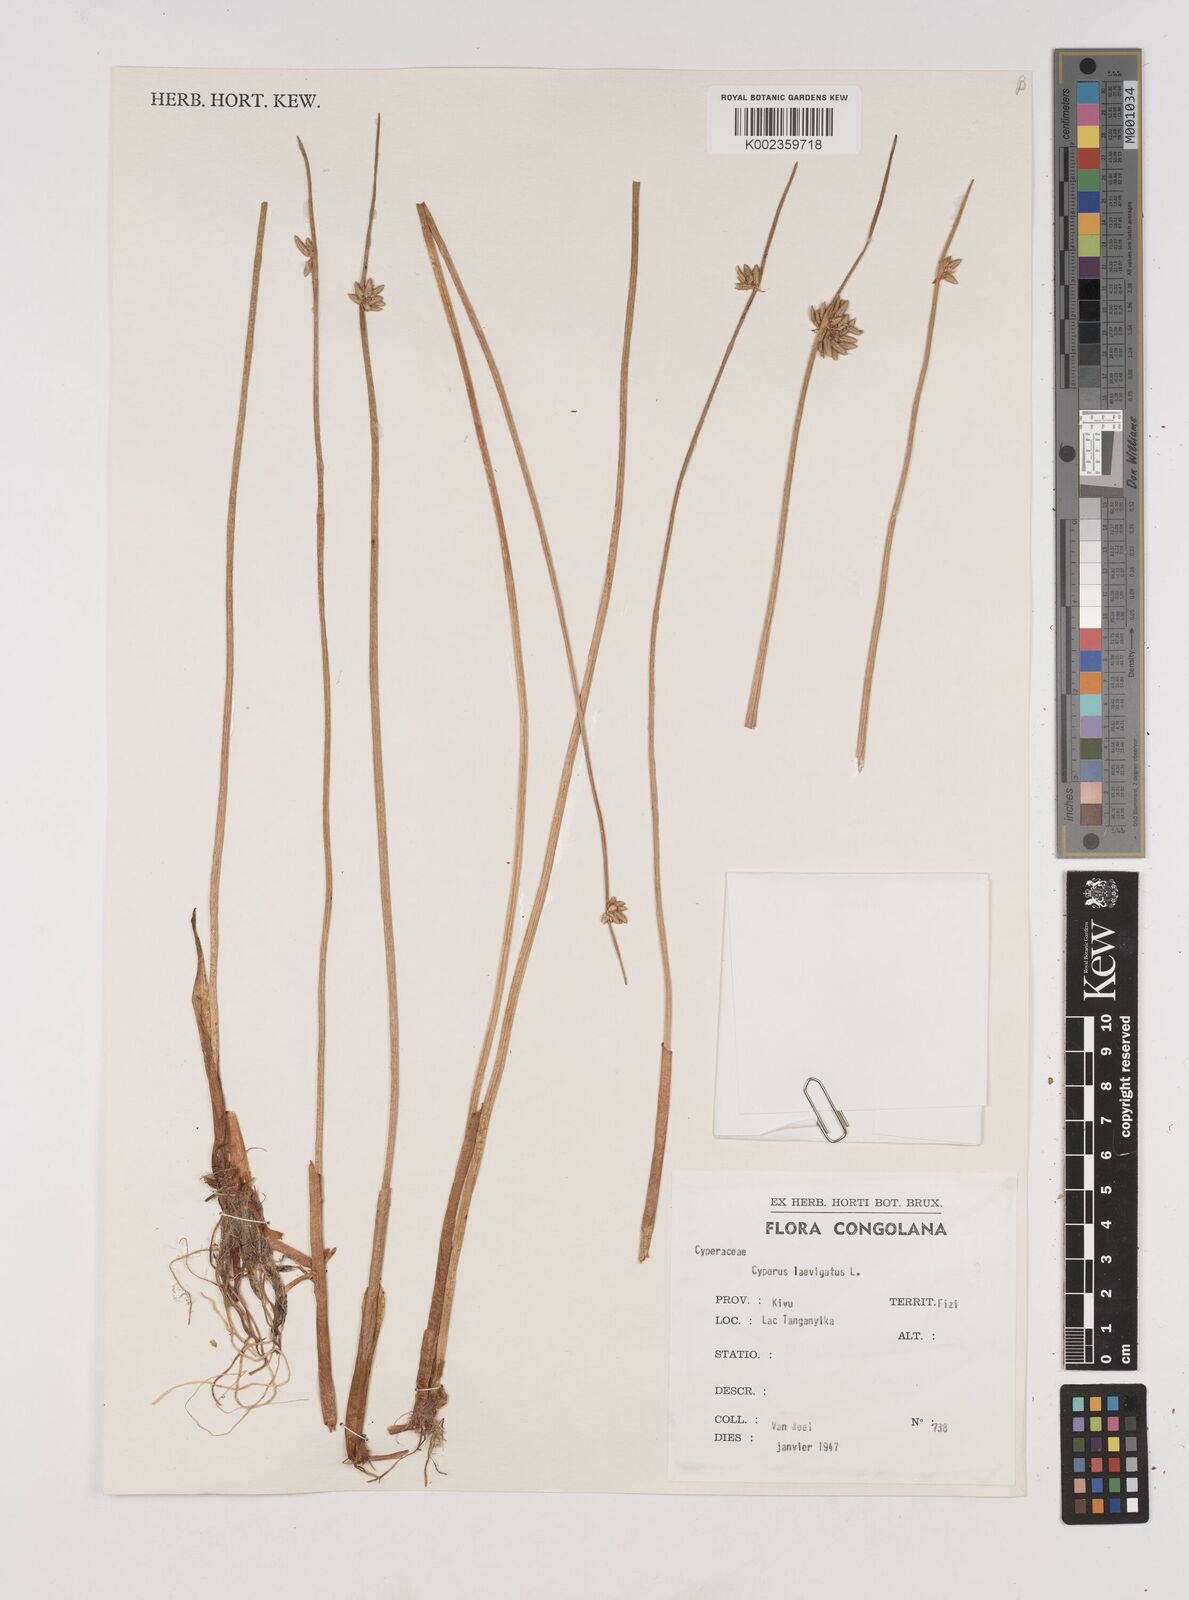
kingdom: Plantae
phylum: Tracheophyta
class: Liliopsida
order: Poales
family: Cyperaceae
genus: Cyperus
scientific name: Cyperus laevigatus
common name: Smooth flat sedge
